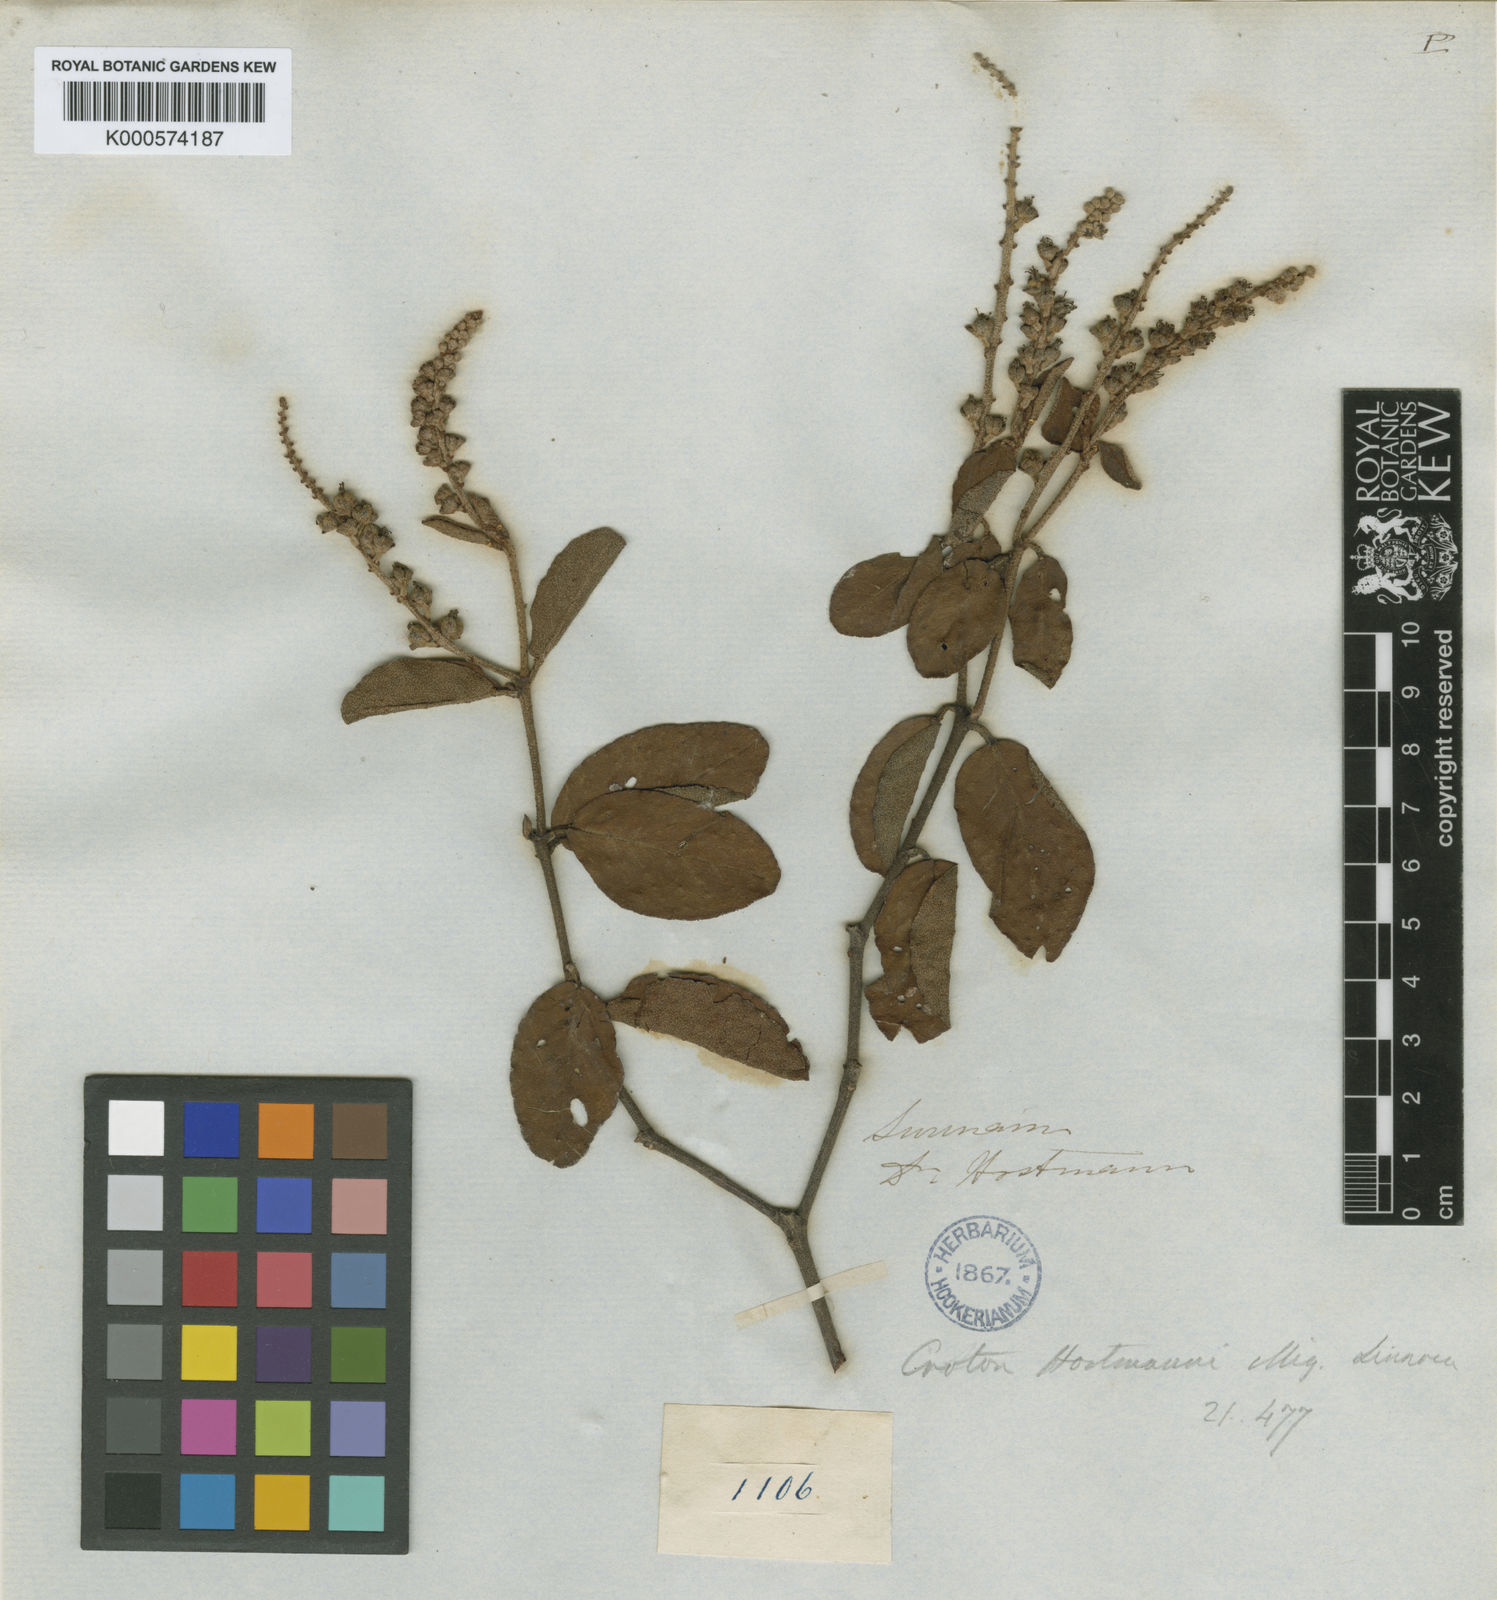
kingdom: Plantae
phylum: Tracheophyta
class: Magnoliopsida
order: Malpighiales
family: Euphorbiaceae
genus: Croton
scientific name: Croton hostmannii
